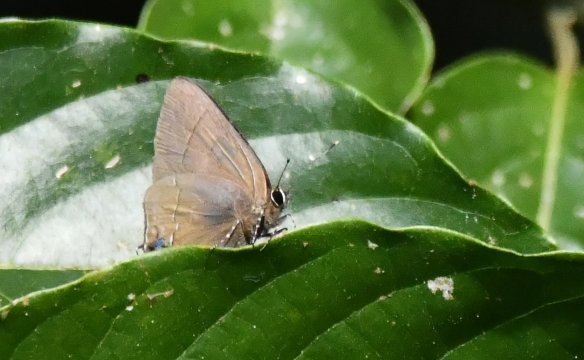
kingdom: Animalia
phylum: Arthropoda
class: Insecta
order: Lepidoptera
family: Lycaenidae
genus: Ziegleria
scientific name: Ziegleria hesperitis
